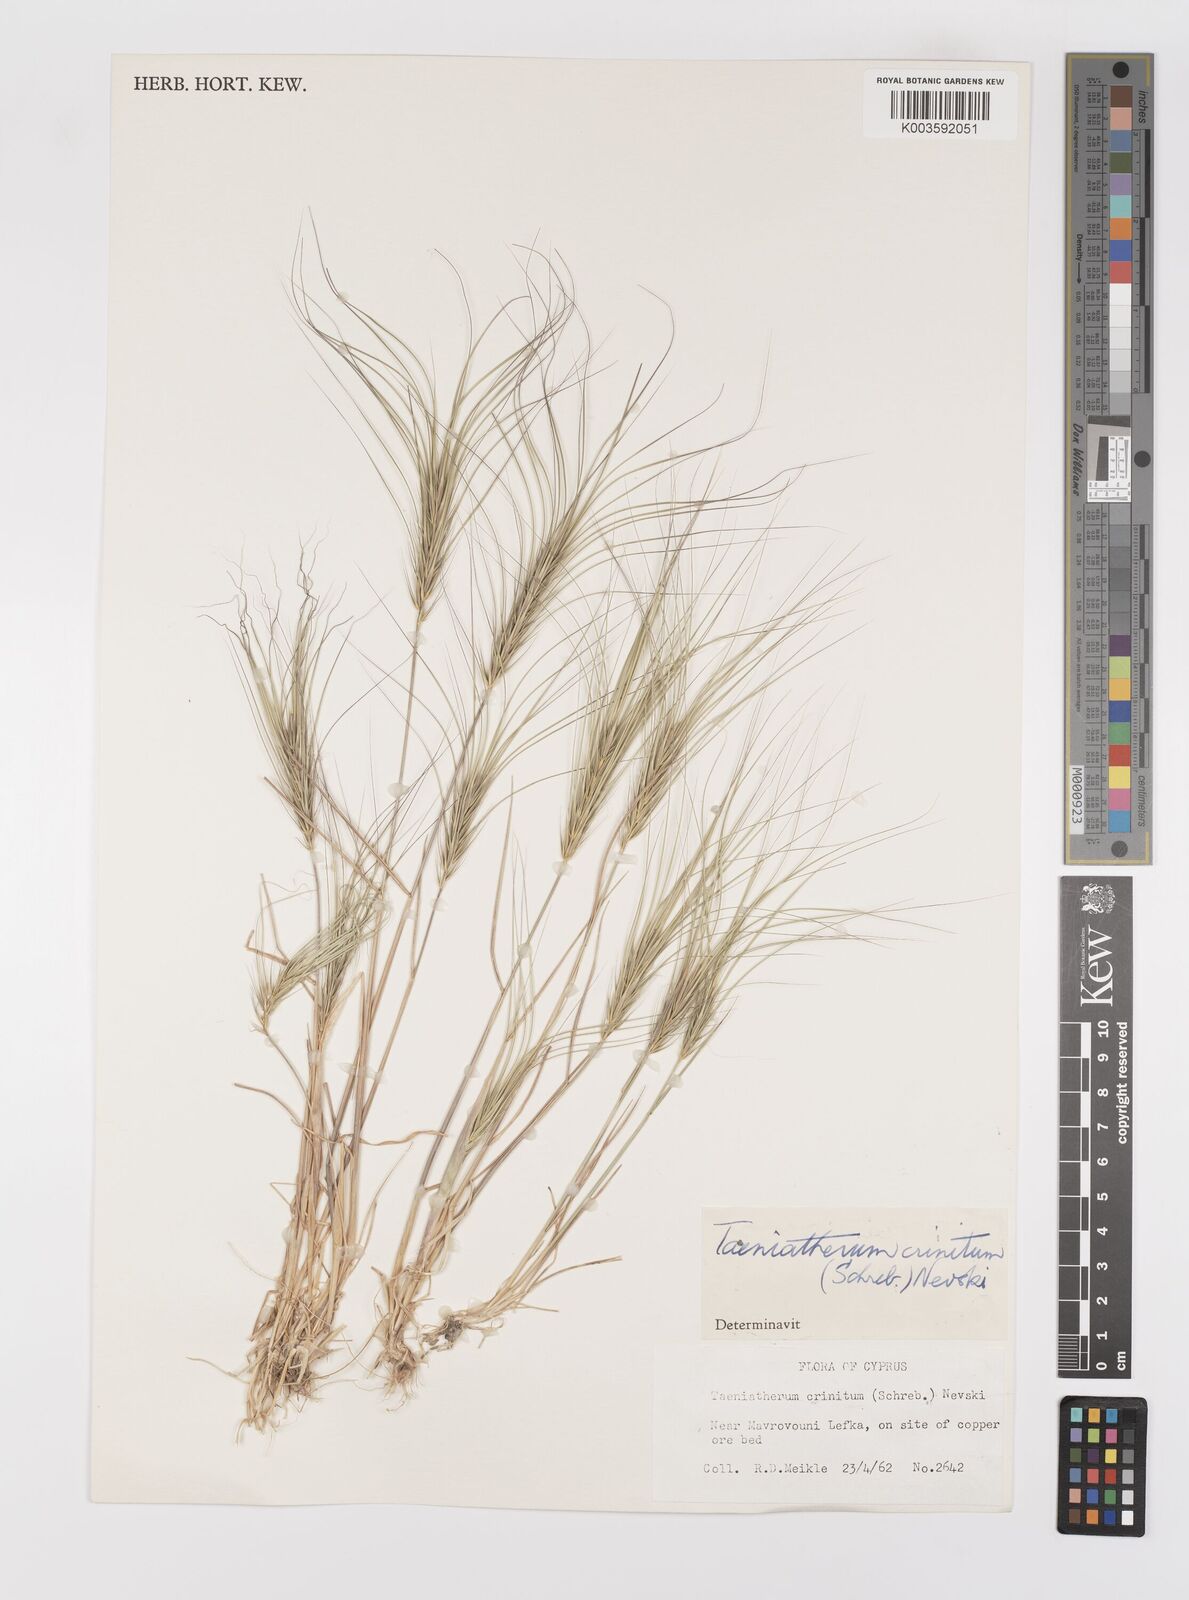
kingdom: Plantae
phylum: Tracheophyta
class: Liliopsida
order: Poales
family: Poaceae
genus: Taeniatherum
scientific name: Taeniatherum caput-medusae
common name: Medusahead
